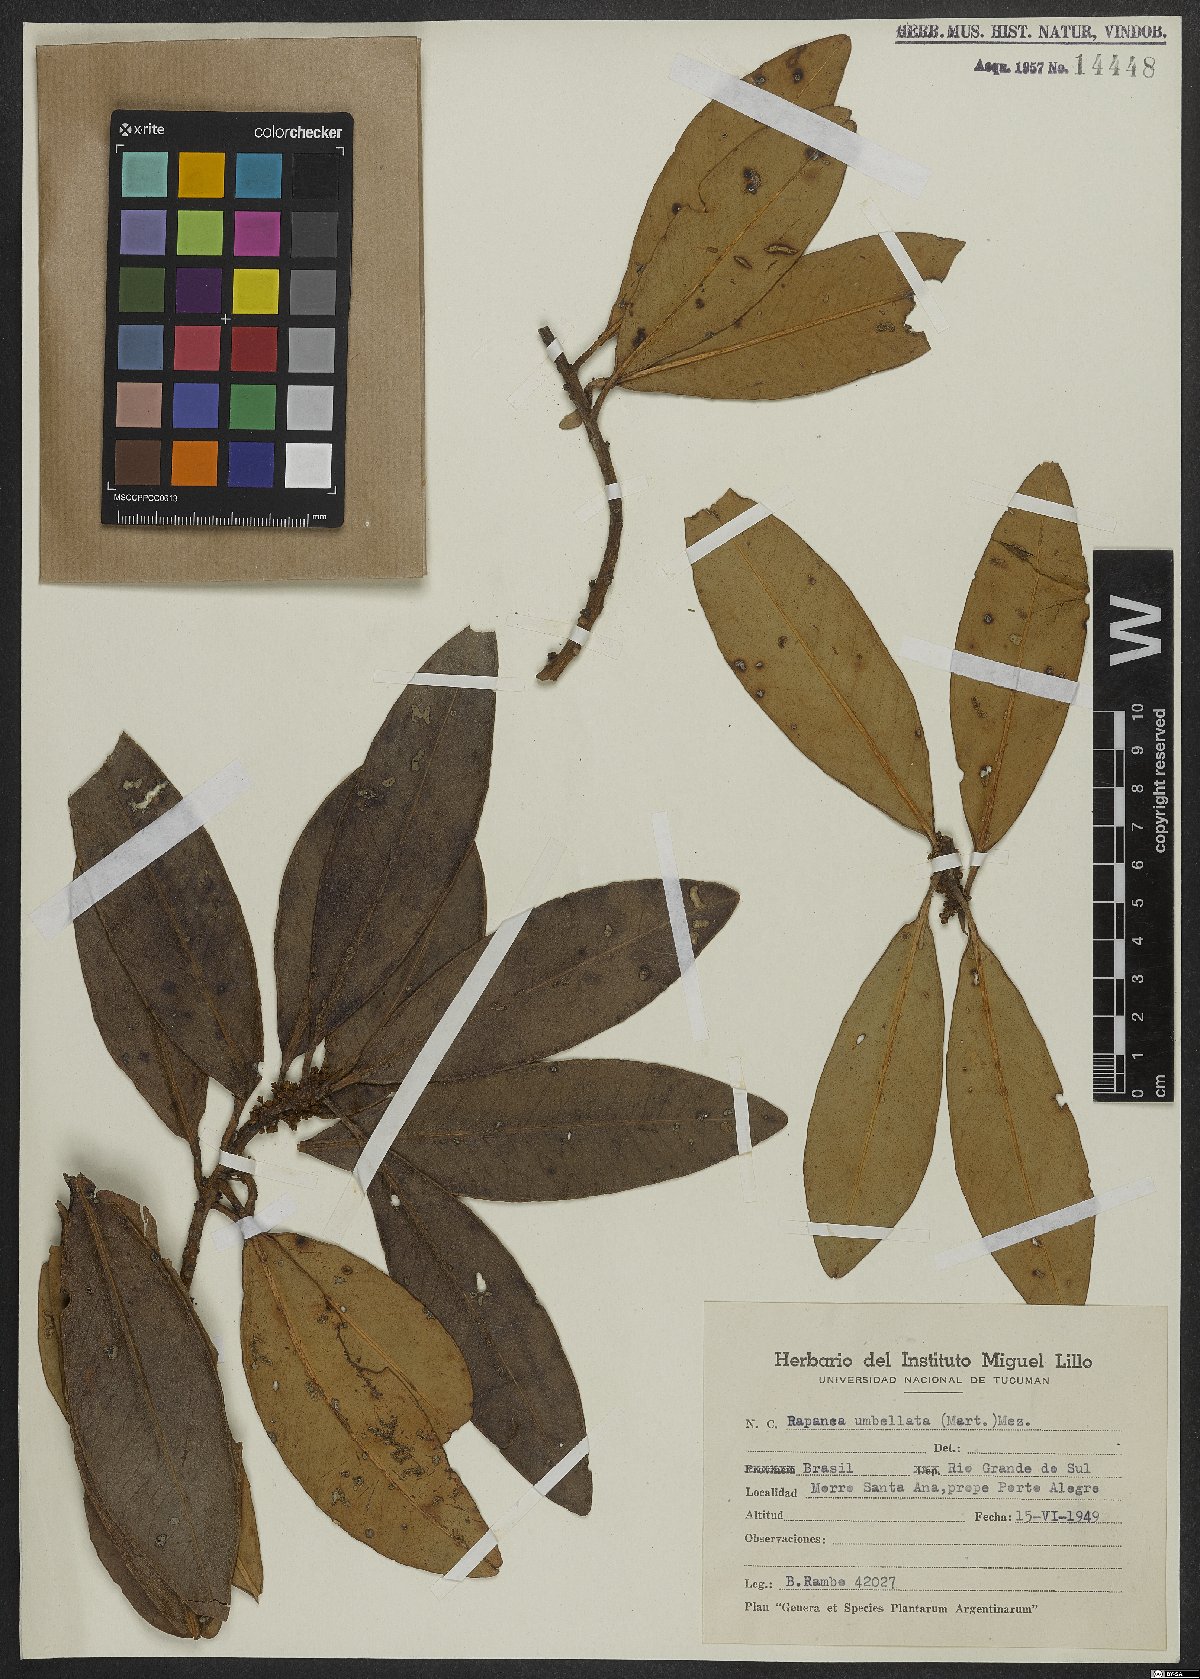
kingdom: Plantae
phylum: Tracheophyta
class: Magnoliopsida
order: Ericales
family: Primulaceae
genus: Myrsine
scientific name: Myrsine umbellata
